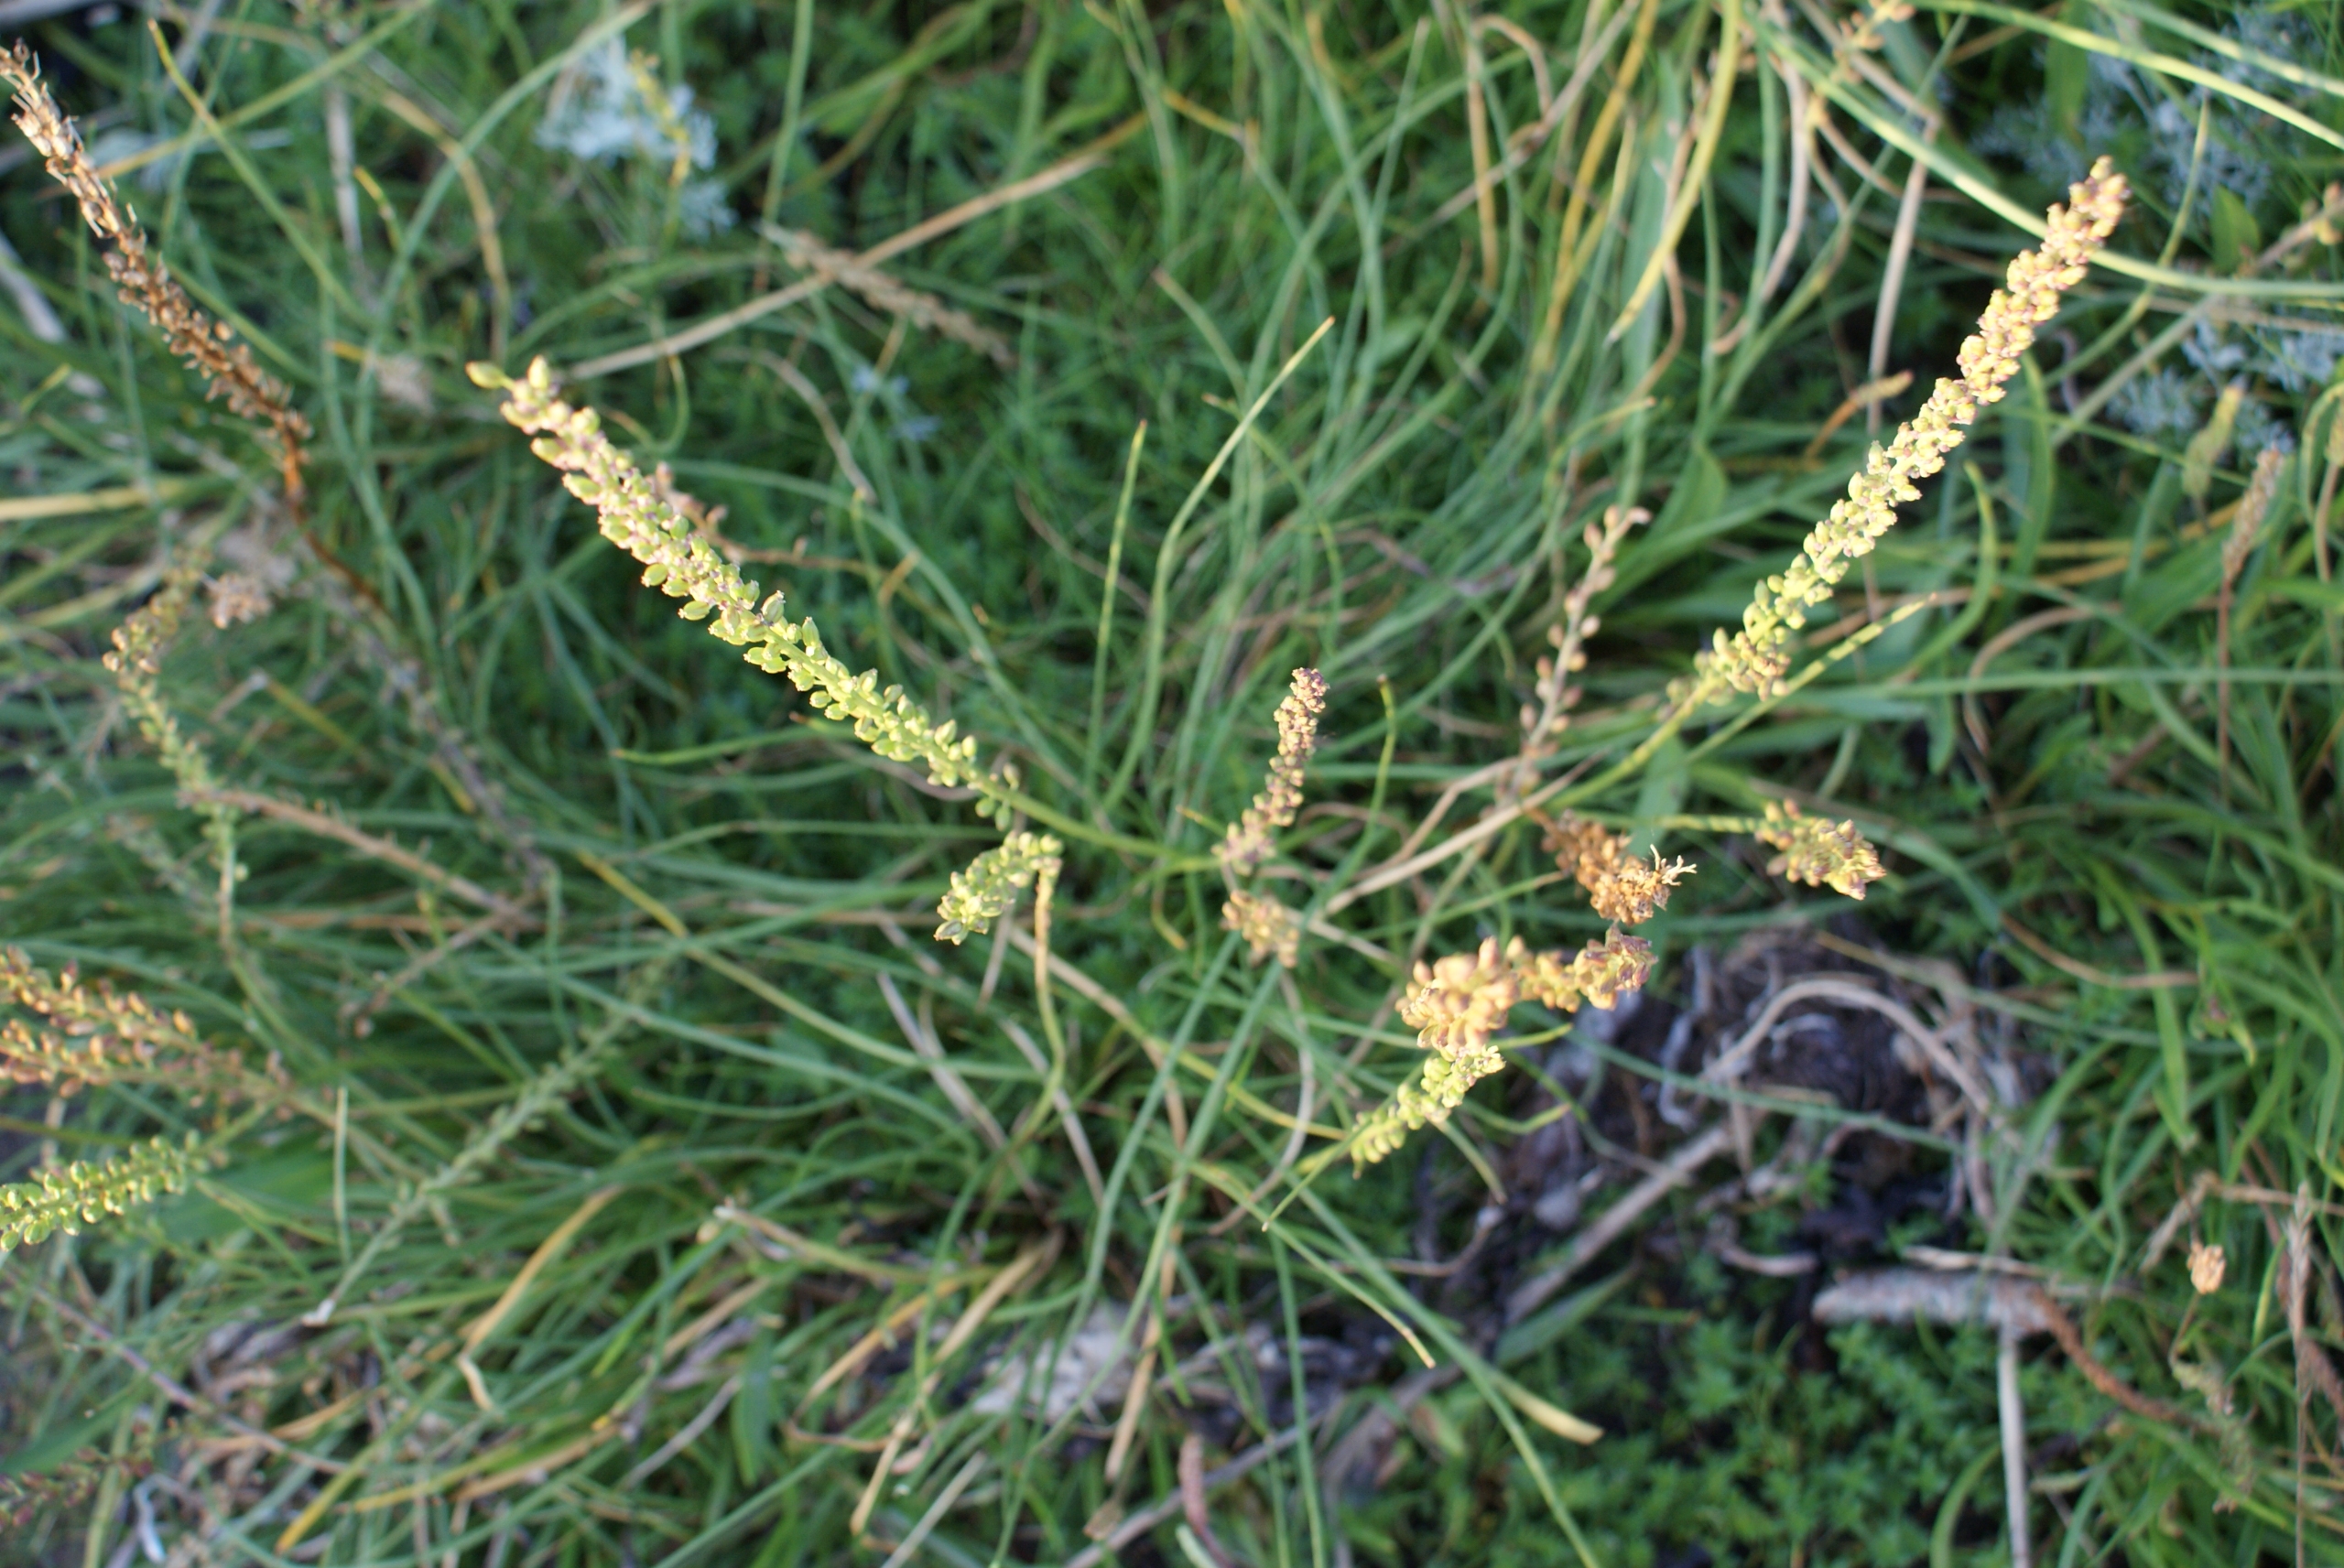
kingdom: Plantae
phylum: Tracheophyta
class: Liliopsida
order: Alismatales
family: Juncaginaceae
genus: Triglochin
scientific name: Triglochin maritima
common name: Strand-trehage
